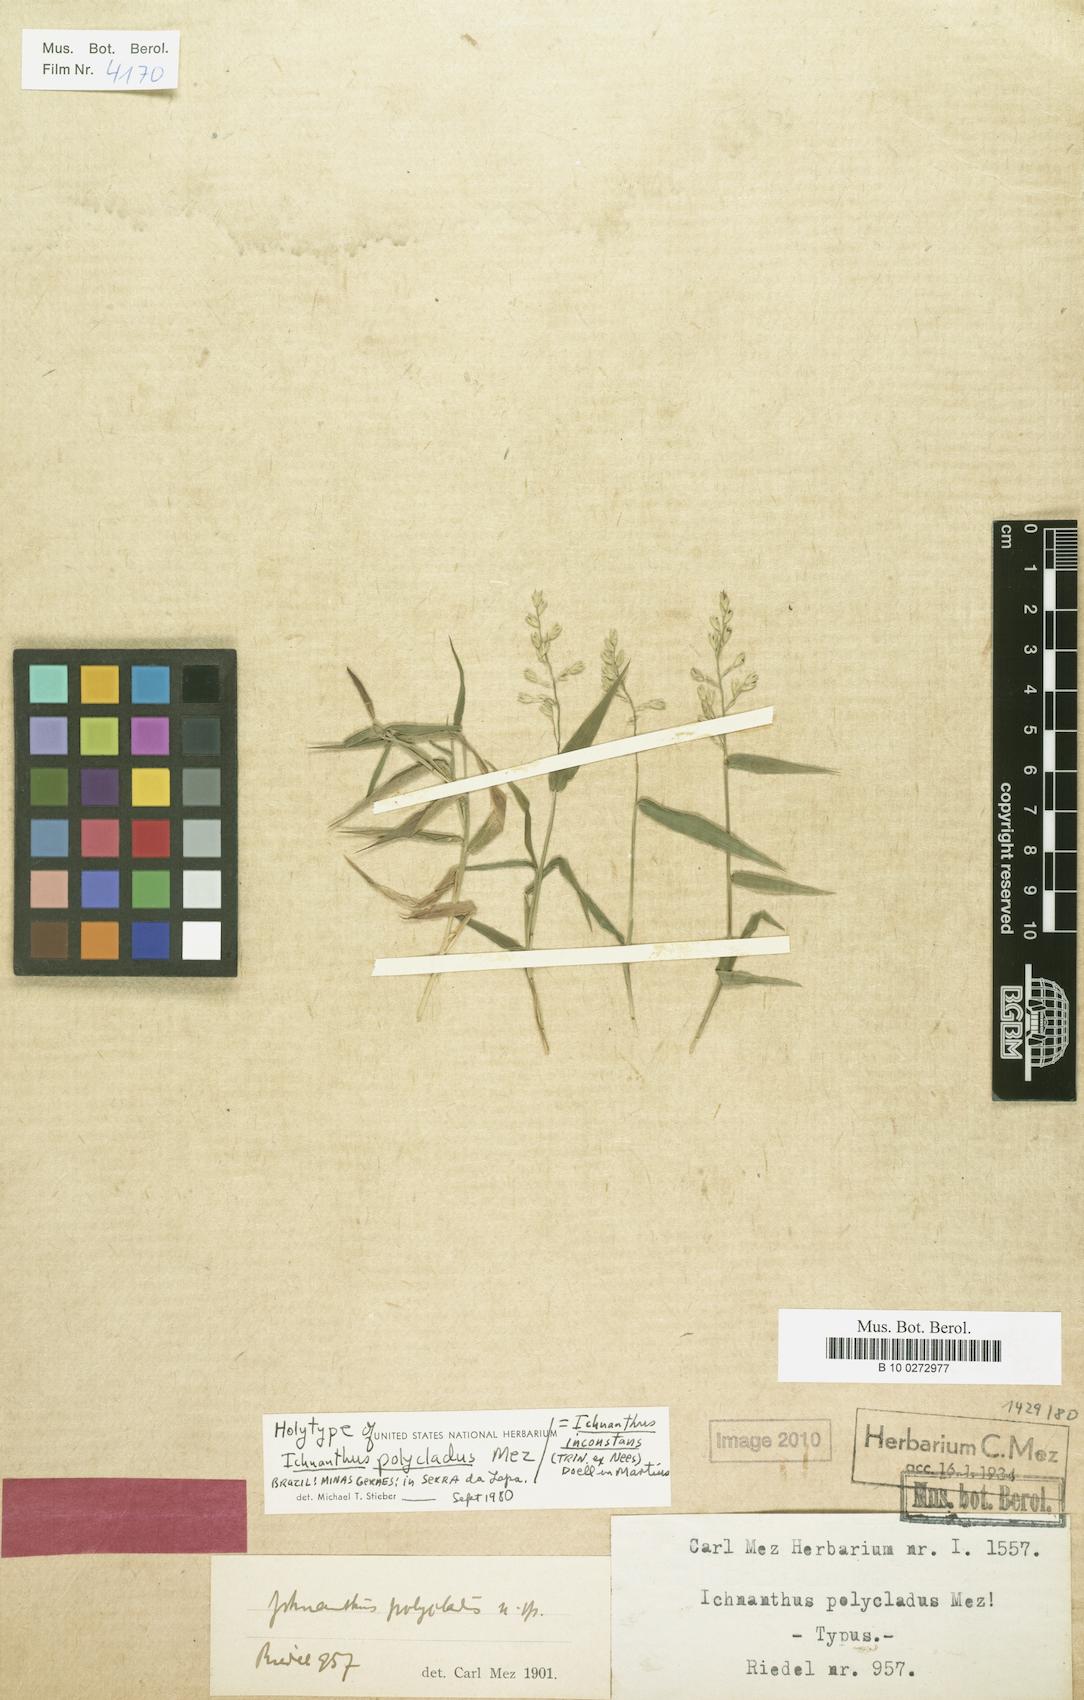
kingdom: Plantae
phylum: Tracheophyta
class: Liliopsida
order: Poales
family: Poaceae
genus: Ichnanthus
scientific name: Ichnanthus inconstans
